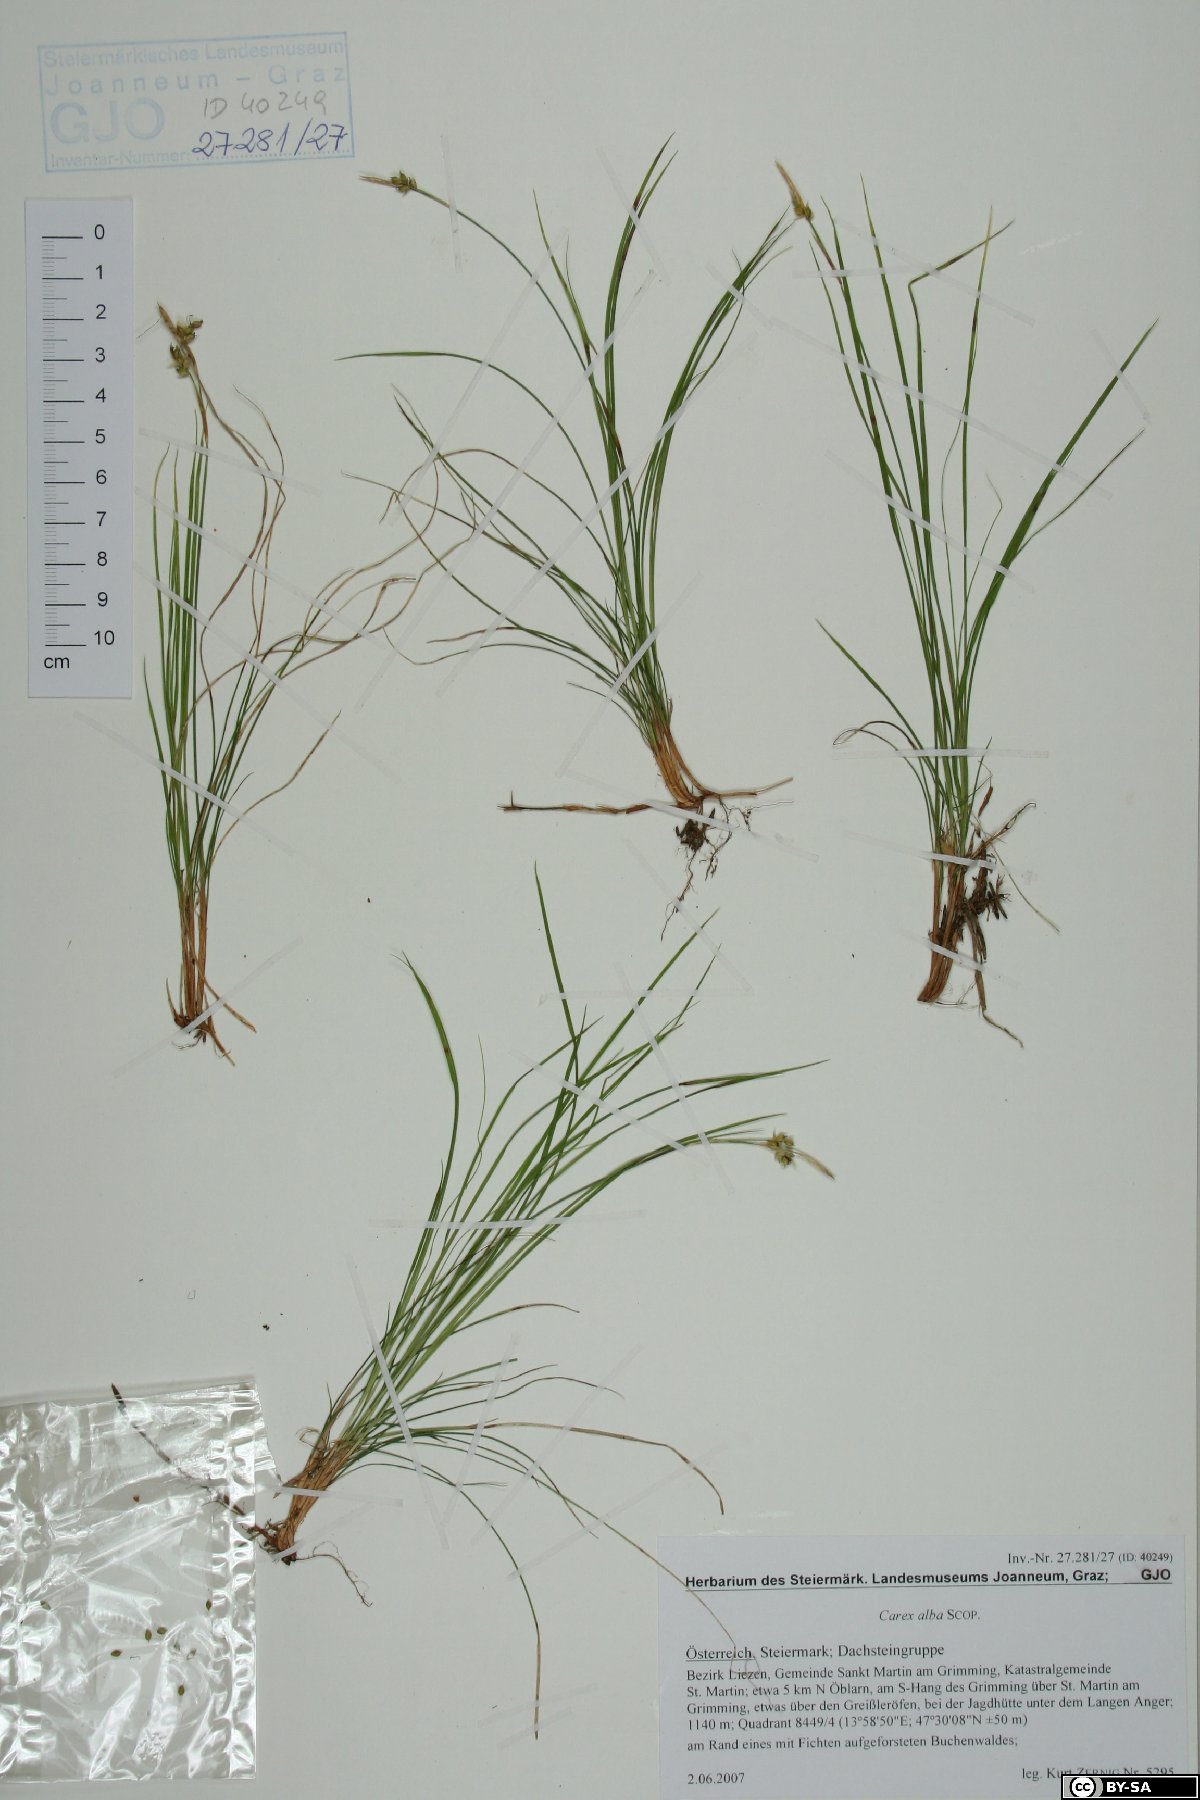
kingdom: Plantae
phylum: Tracheophyta
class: Liliopsida
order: Poales
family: Cyperaceae
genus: Carex
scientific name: Carex alba
